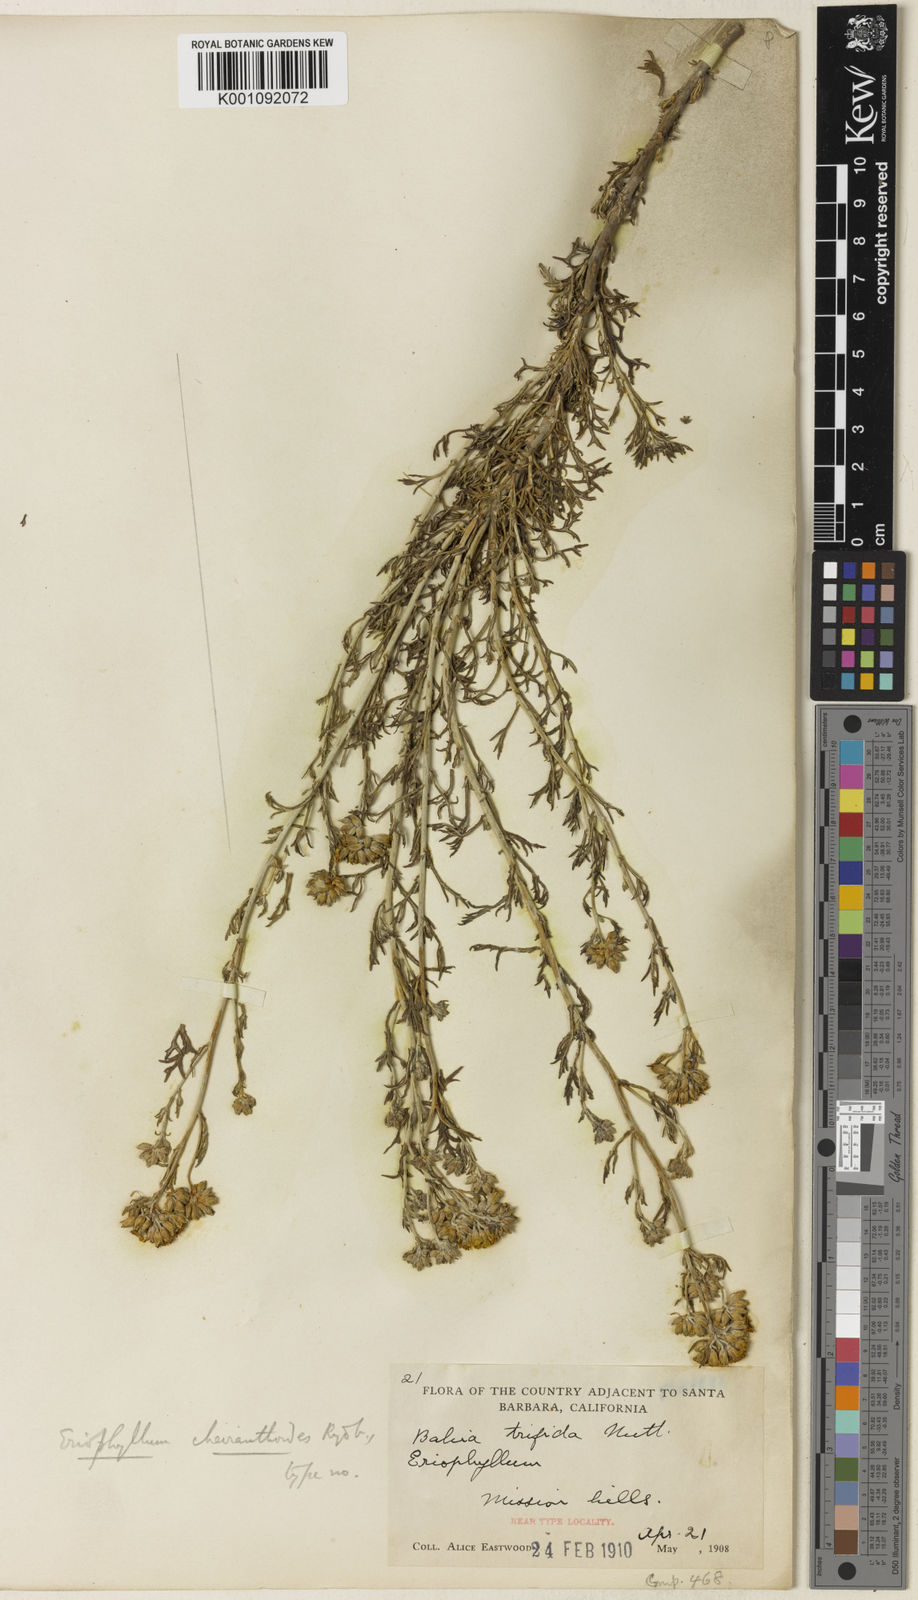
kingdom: Plantae
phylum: Tracheophyta
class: Magnoliopsida
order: Asterales
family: Asteraceae
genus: Eriophyllum
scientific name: Eriophyllum confertiflorum
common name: Golden-yarrow
